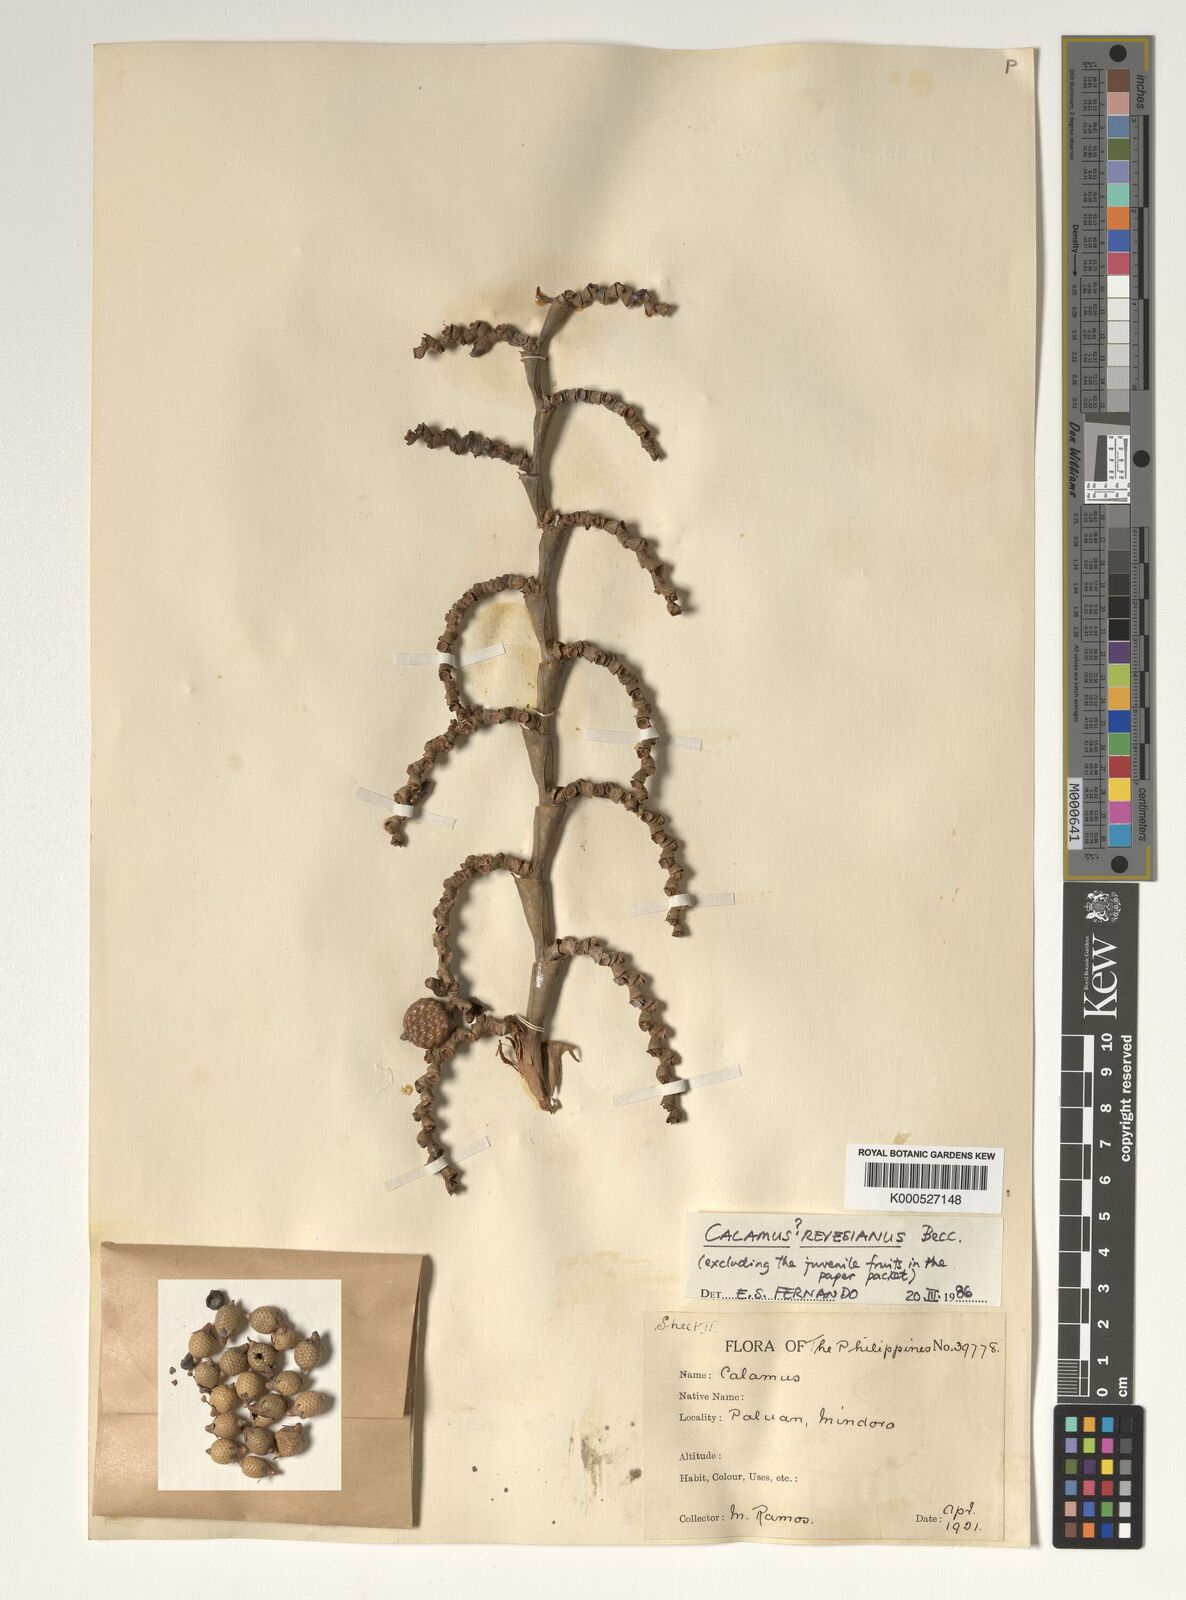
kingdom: Plantae
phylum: Tracheophyta
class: Liliopsida
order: Arecales
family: Arecaceae
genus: Calamus
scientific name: Calamus moseleyanus
